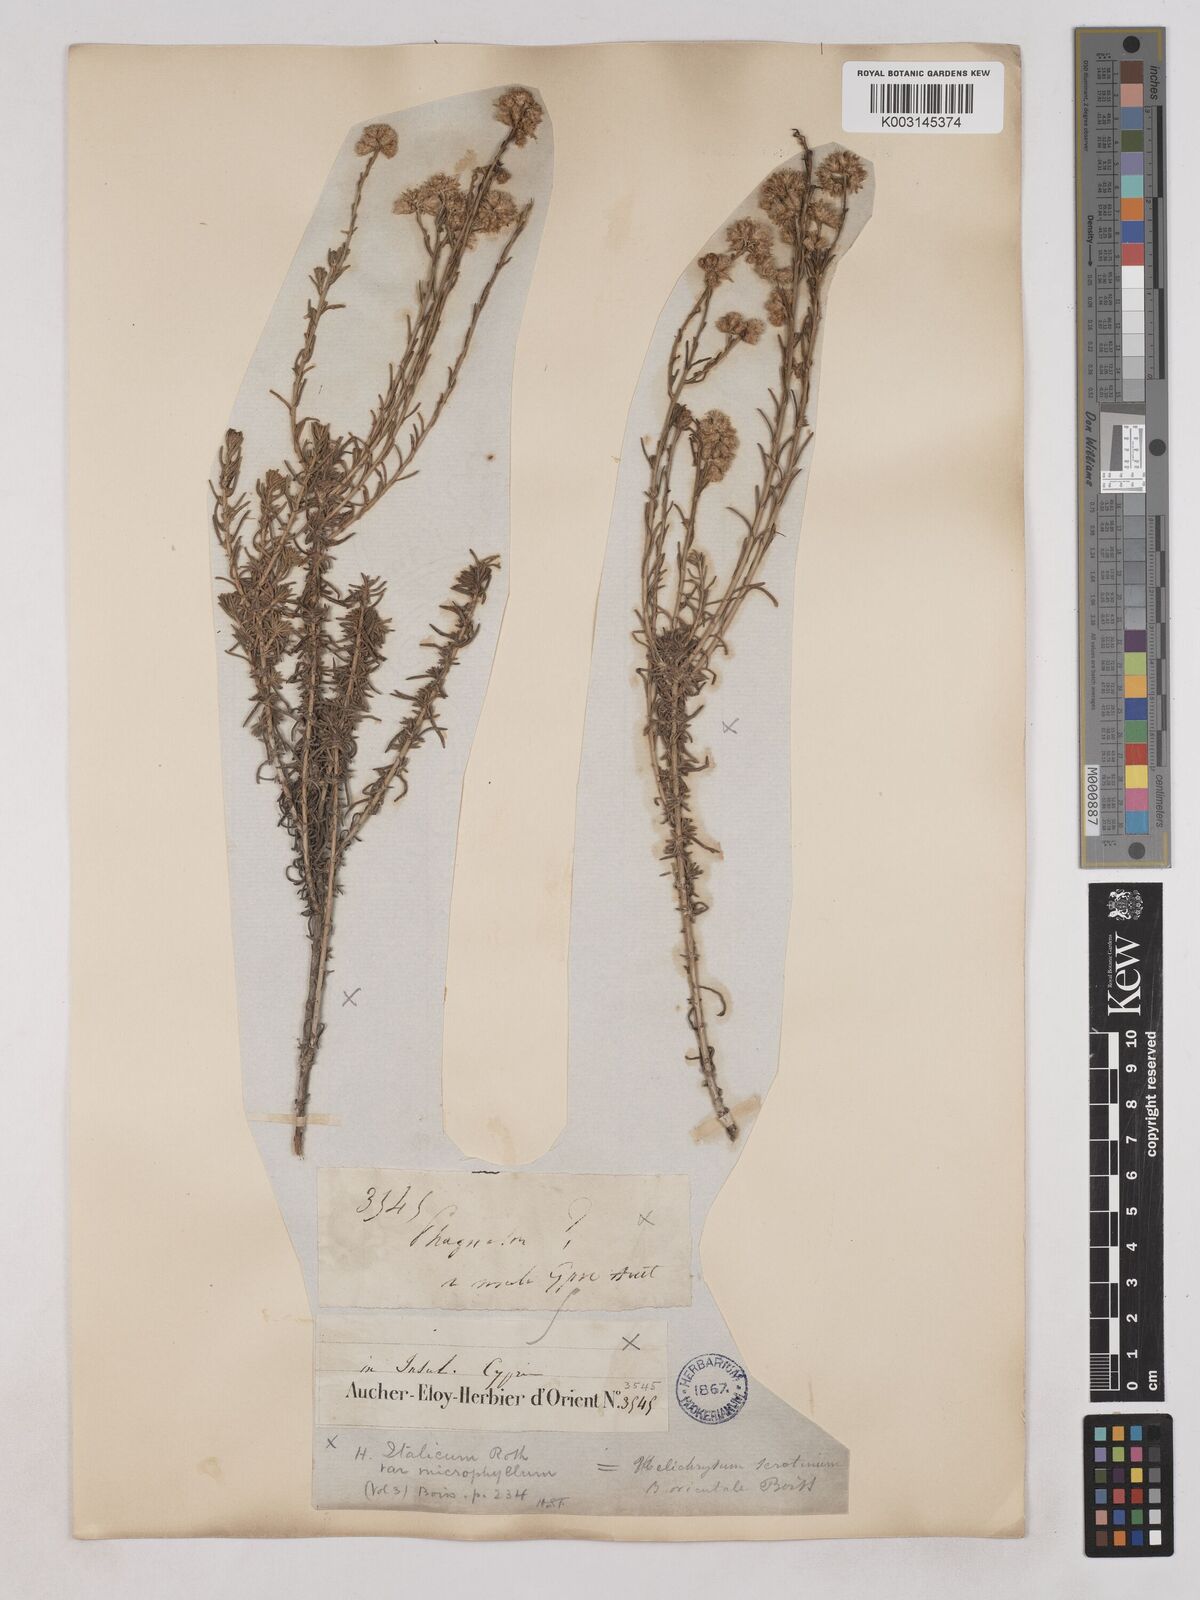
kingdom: Plantae
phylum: Tracheophyta
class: Magnoliopsida
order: Asterales
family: Asteraceae
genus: Helichrysum
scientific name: Helichrysum italicum
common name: Curryplant
